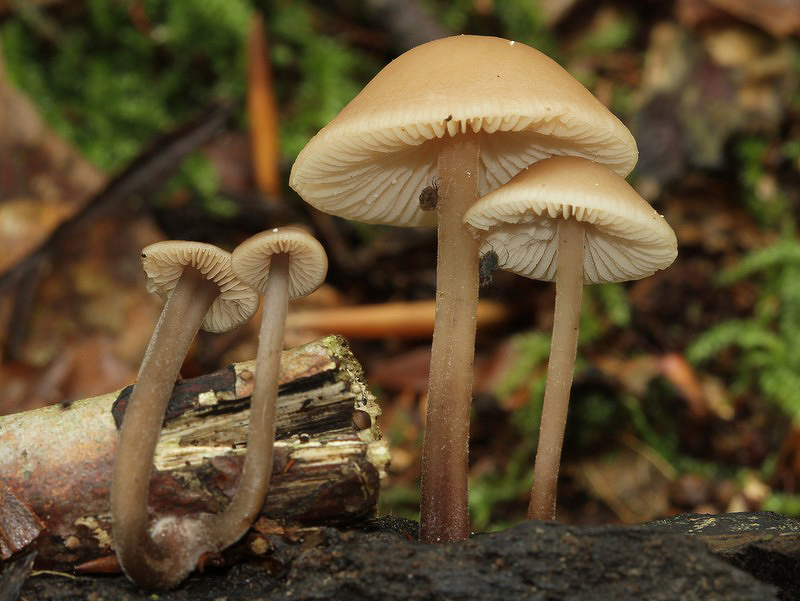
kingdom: Fungi
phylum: Basidiomycota
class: Agaricomycetes
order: Agaricales
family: Entolomataceae
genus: Entoloma
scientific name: Entoloma lampropus
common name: stor løghat
